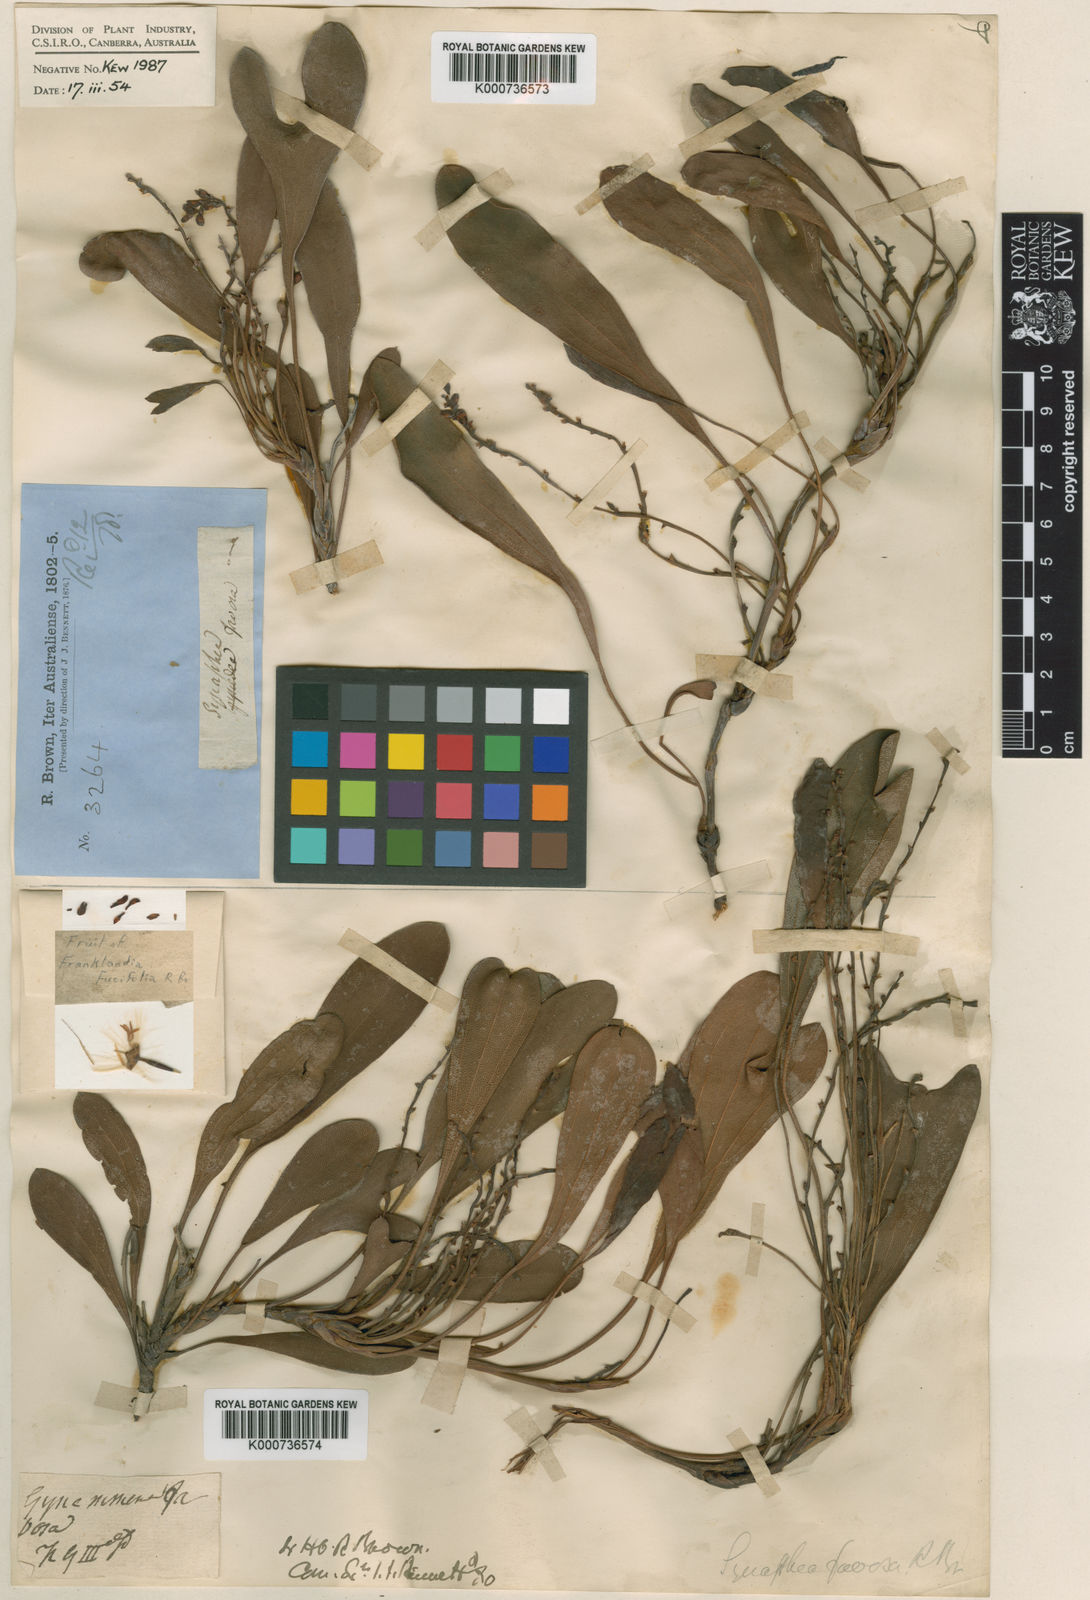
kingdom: Plantae
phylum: Tracheophyta
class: Magnoliopsida
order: Proteales
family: Proteaceae
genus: Synaphea
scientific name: Synaphea favosa
